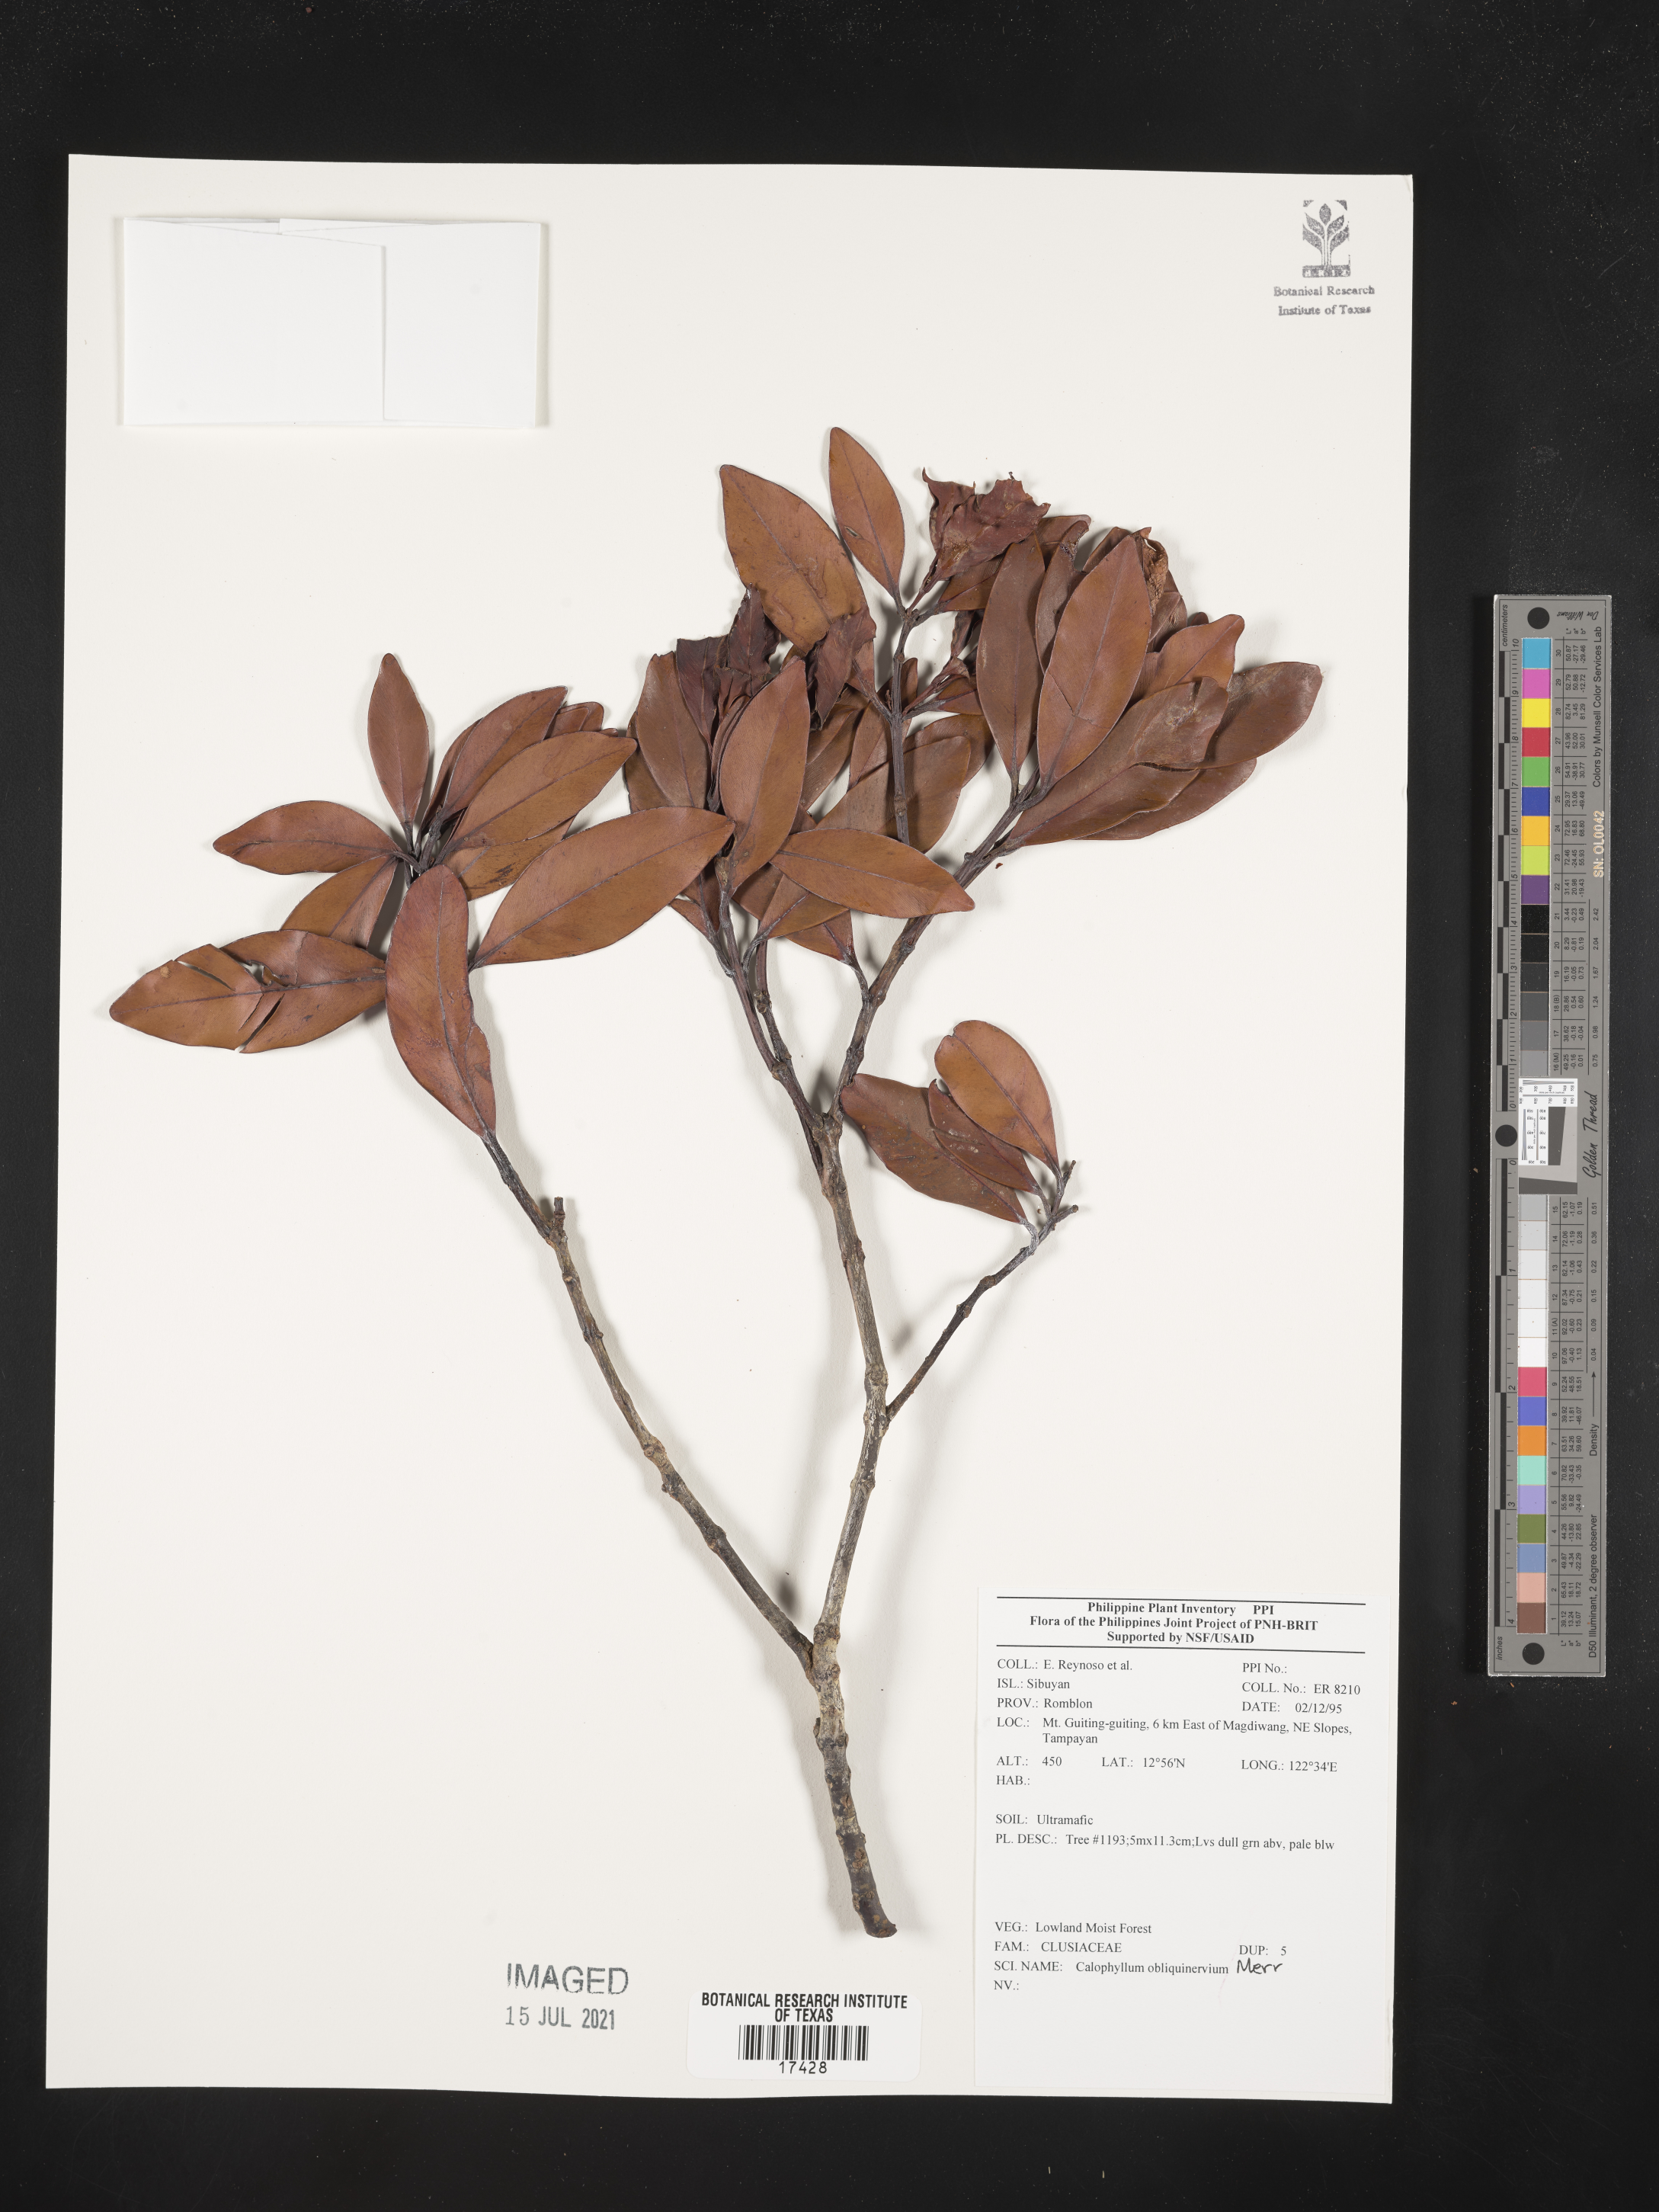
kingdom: Plantae
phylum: Tracheophyta
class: Magnoliopsida
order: Malpighiales
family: Calophyllaceae
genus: Calophyllum
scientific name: Calophyllum obliquinervium
